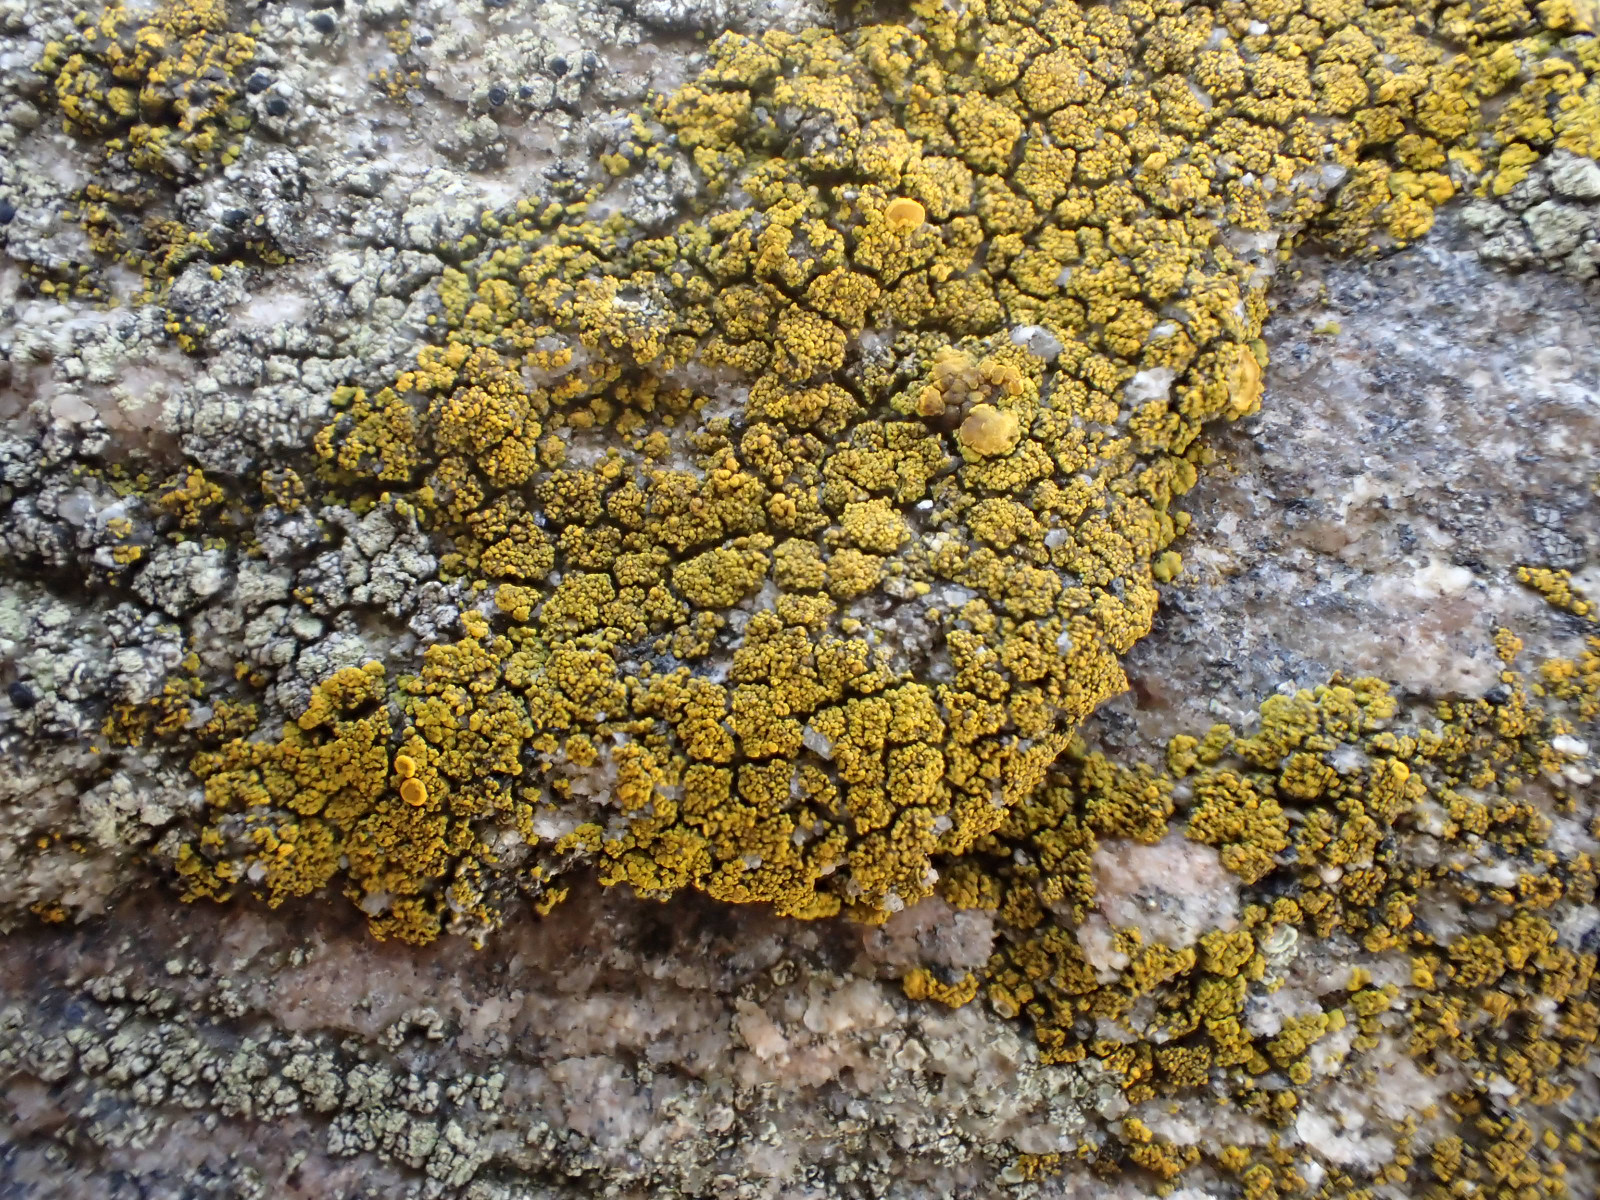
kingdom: Fungi
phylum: Ascomycota
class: Candelariomycetes
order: Candelariales
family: Candelariaceae
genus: Candelariella
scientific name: Candelariella vitellina
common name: almindelig æggeblommelav
